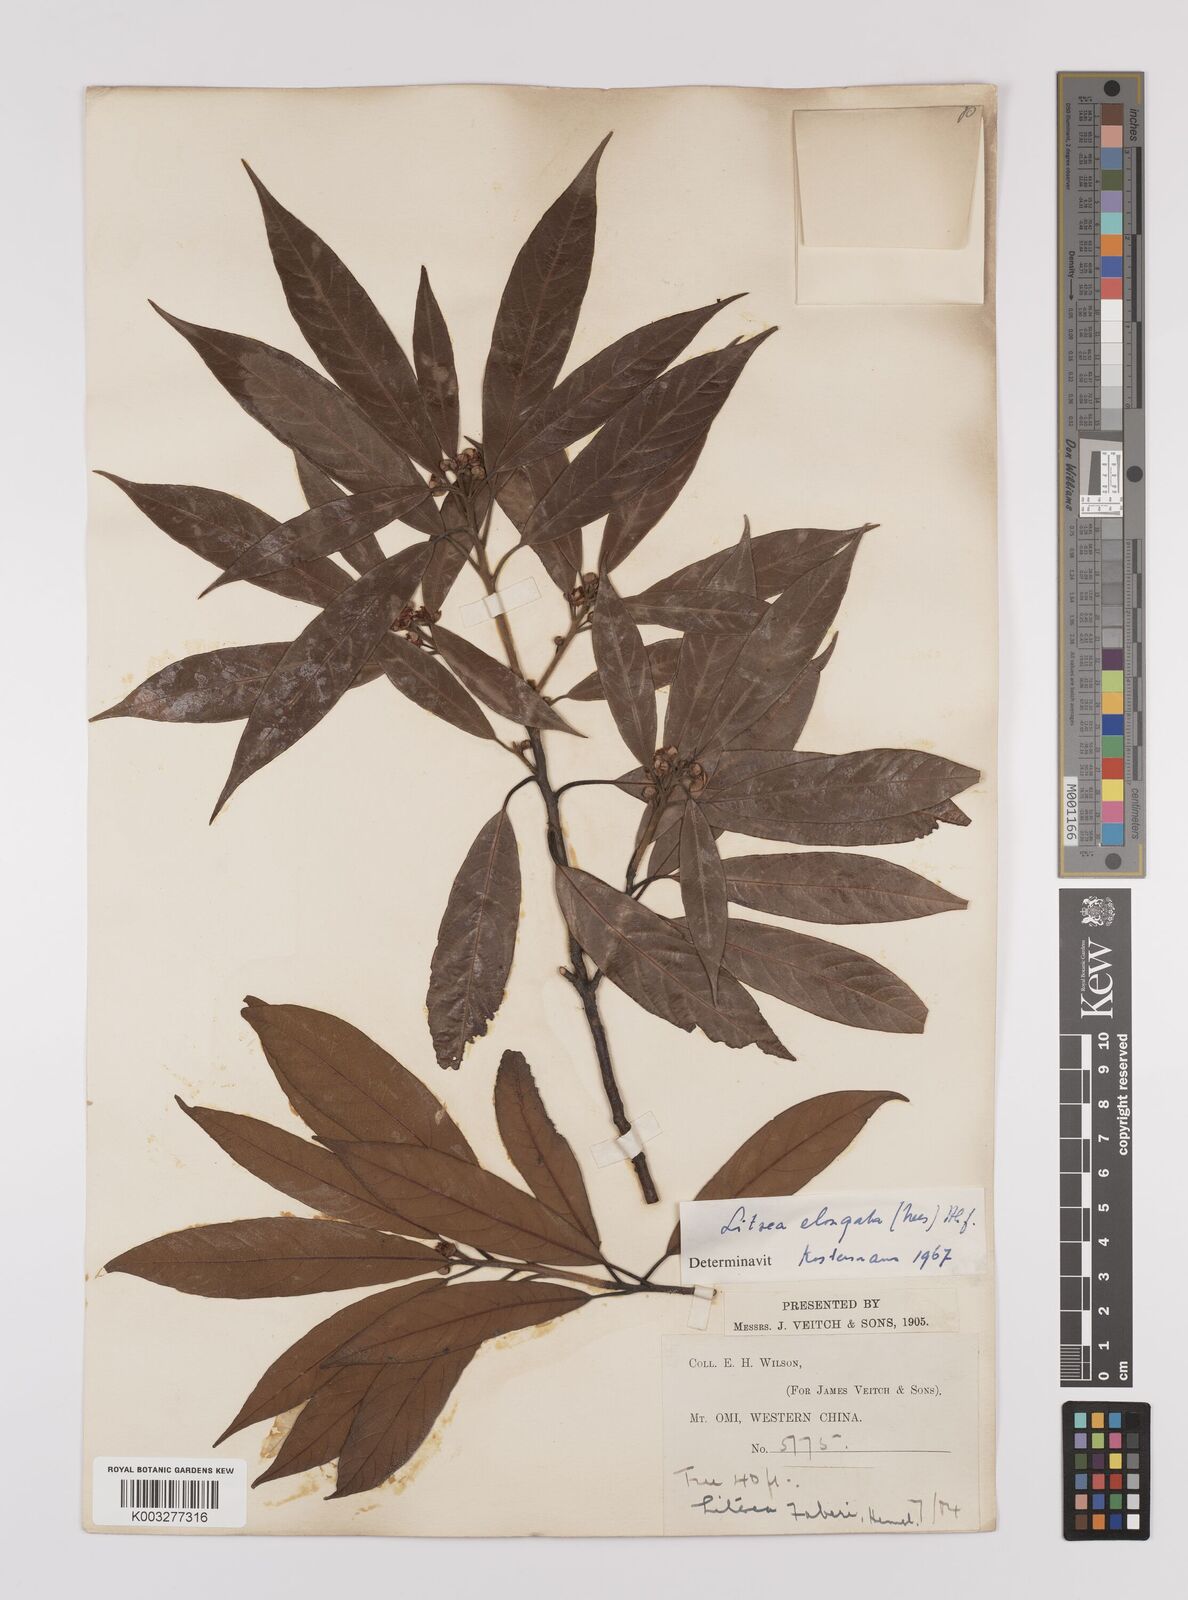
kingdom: Plantae
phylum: Tracheophyta
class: Magnoliopsida
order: Laurales
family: Lauraceae
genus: Litsea
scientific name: Litsea elongata
